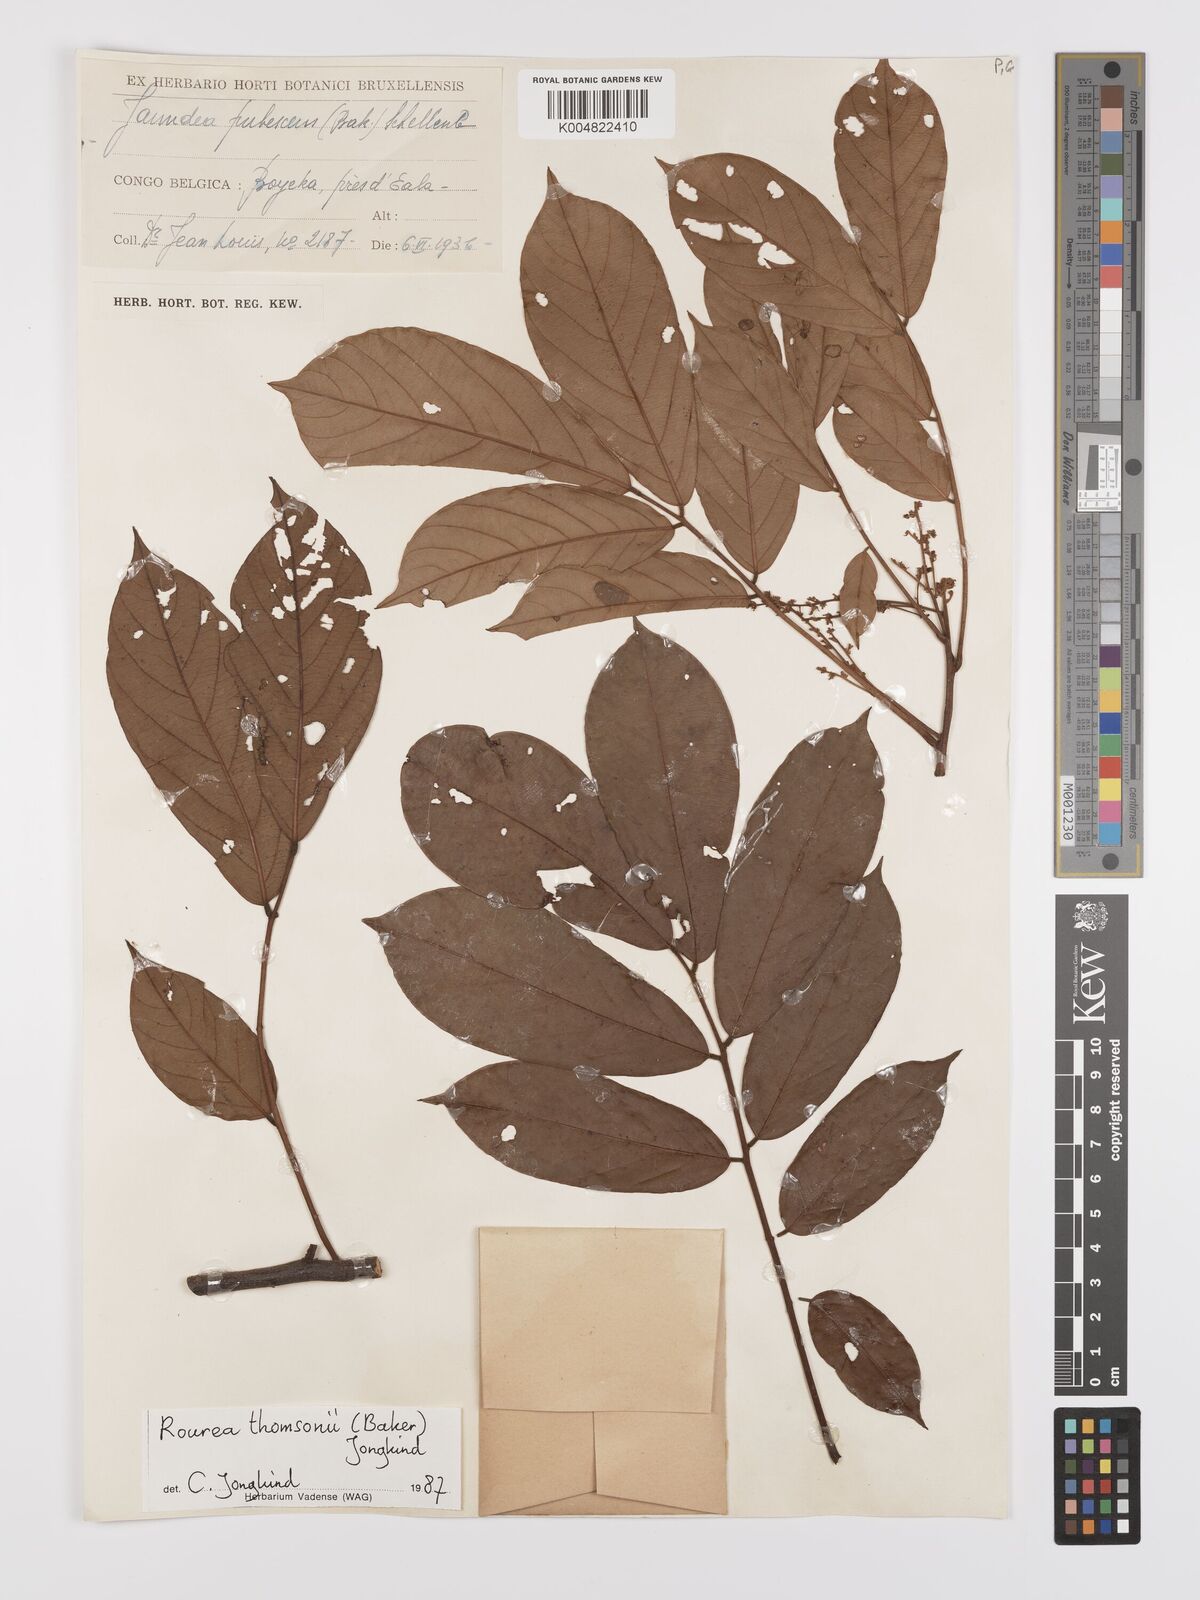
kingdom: Plantae
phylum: Tracheophyta
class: Magnoliopsida
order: Oxalidales
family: Connaraceae
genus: Rourea
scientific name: Rourea pubescens
